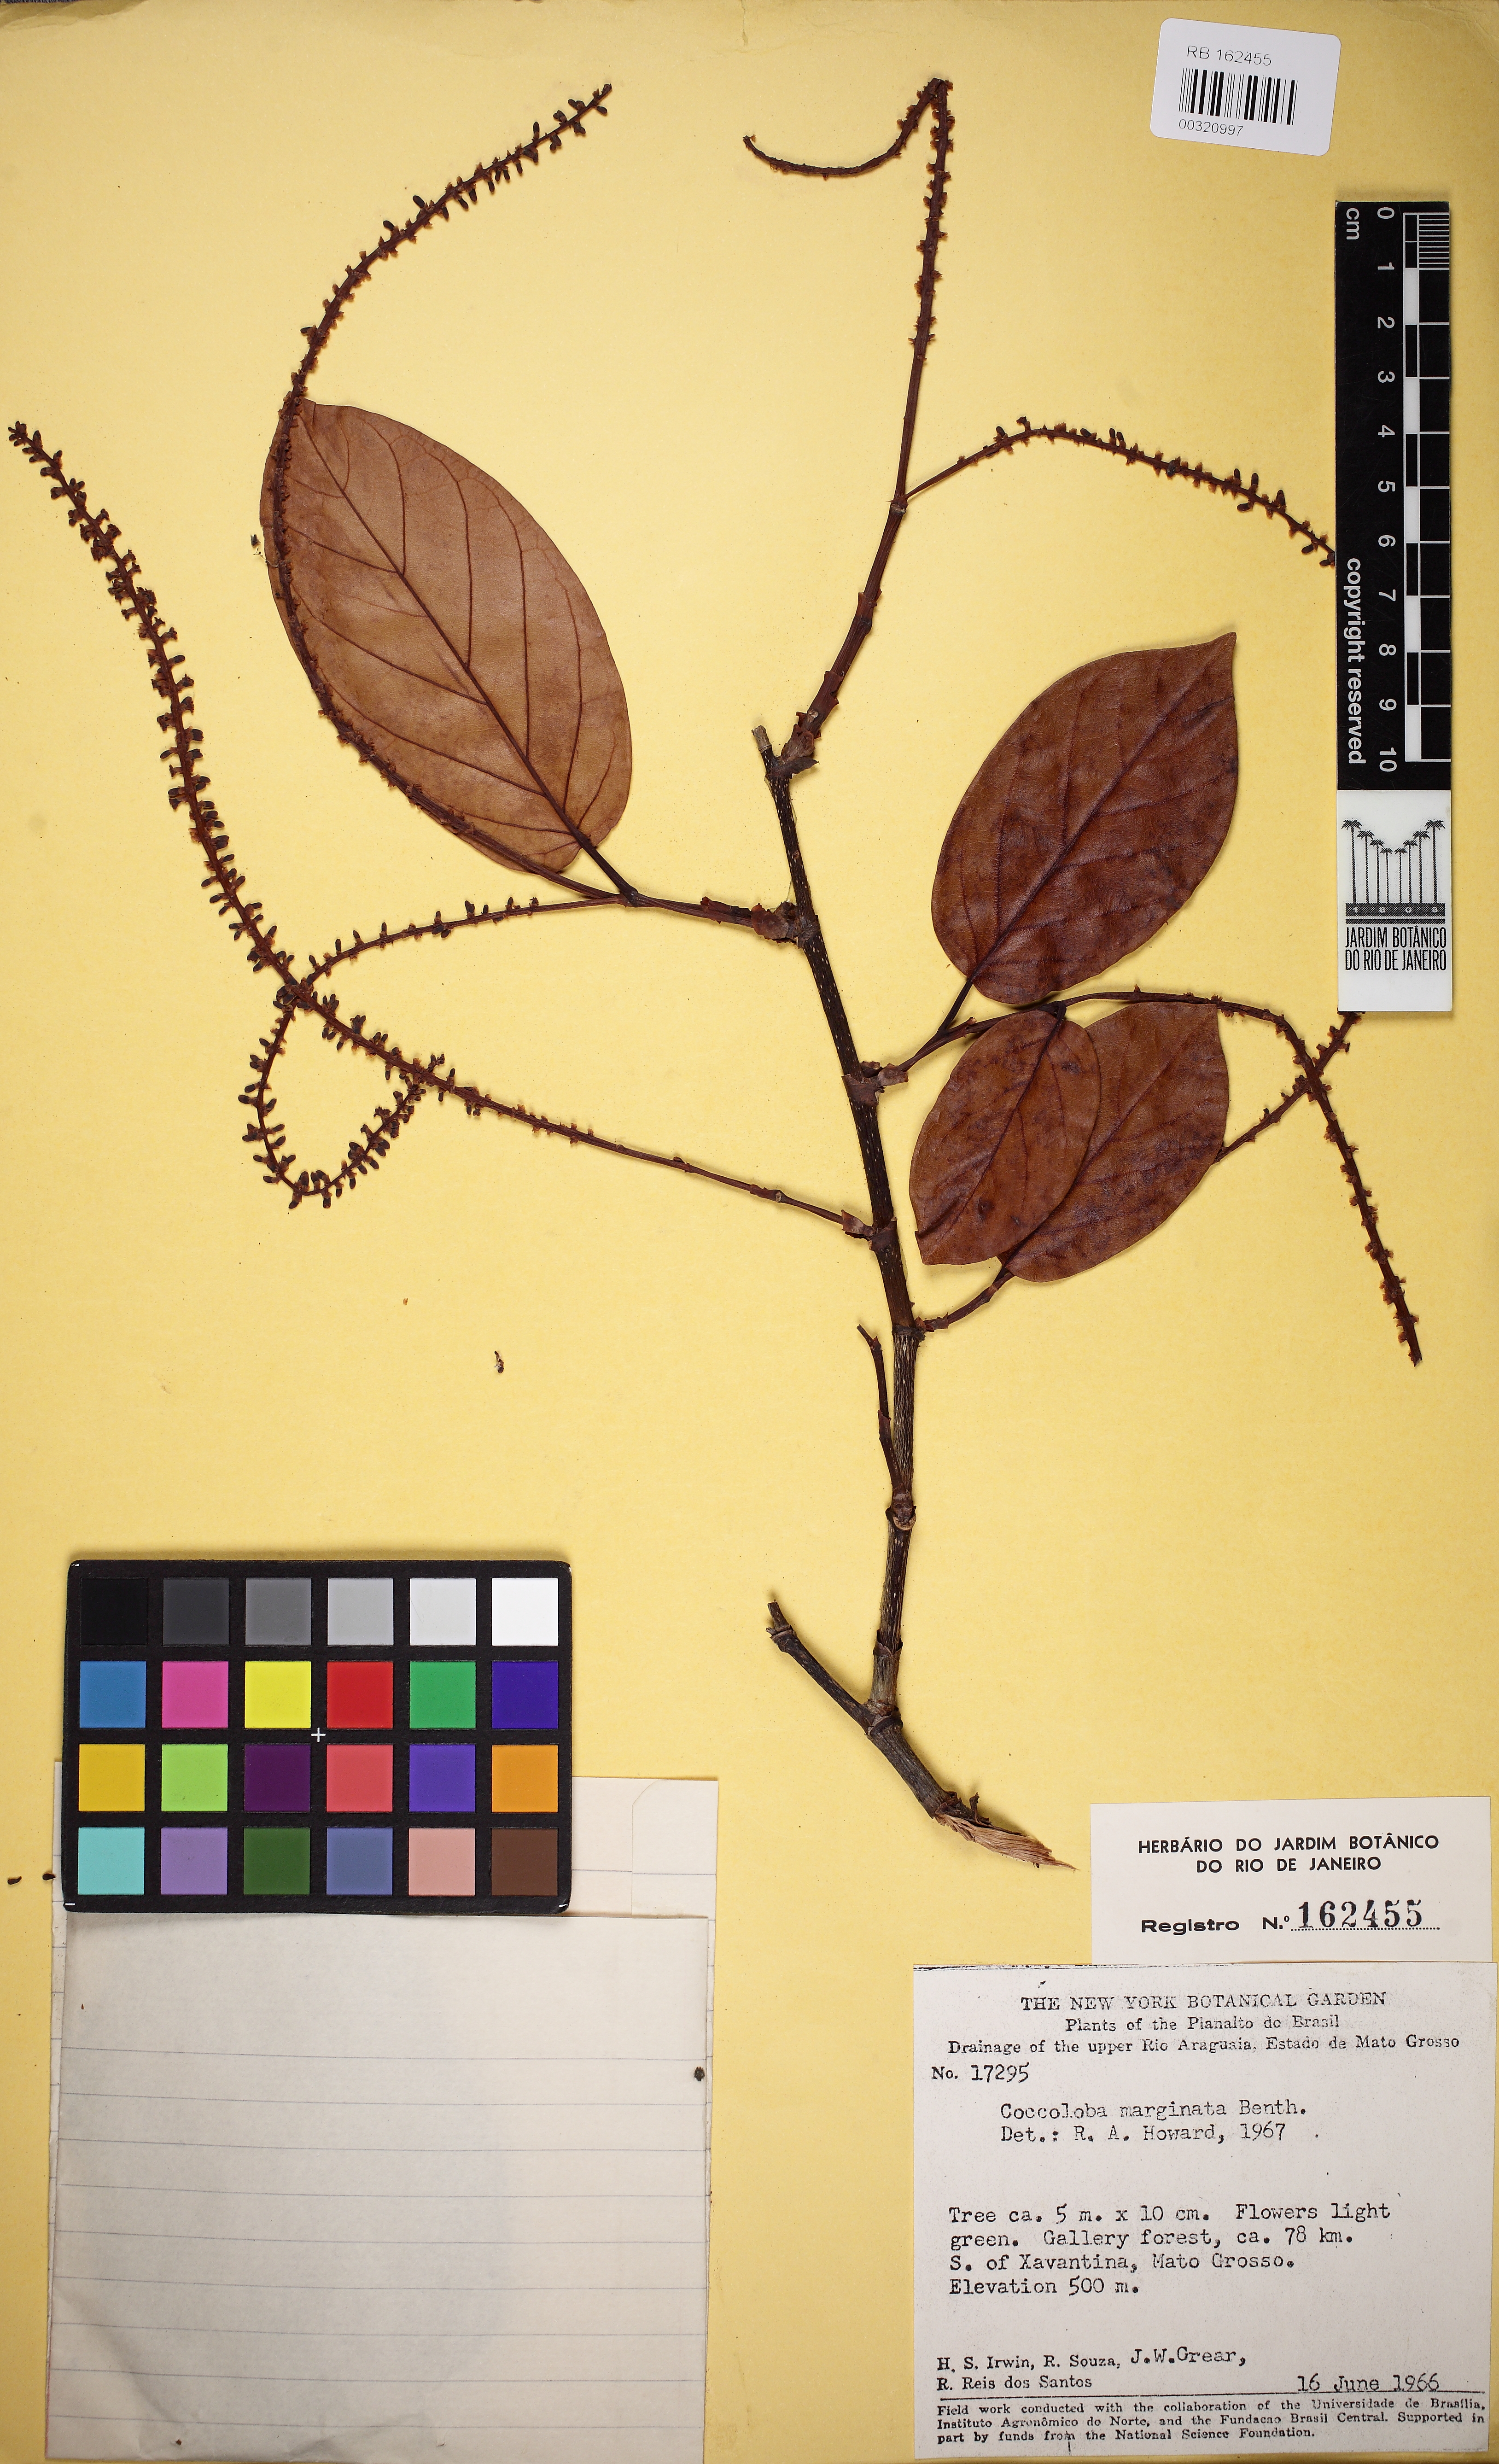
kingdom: Plantae
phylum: Tracheophyta
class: Magnoliopsida
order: Caryophyllales
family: Polygonaceae
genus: Coccoloba
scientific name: Coccoloba nitida
